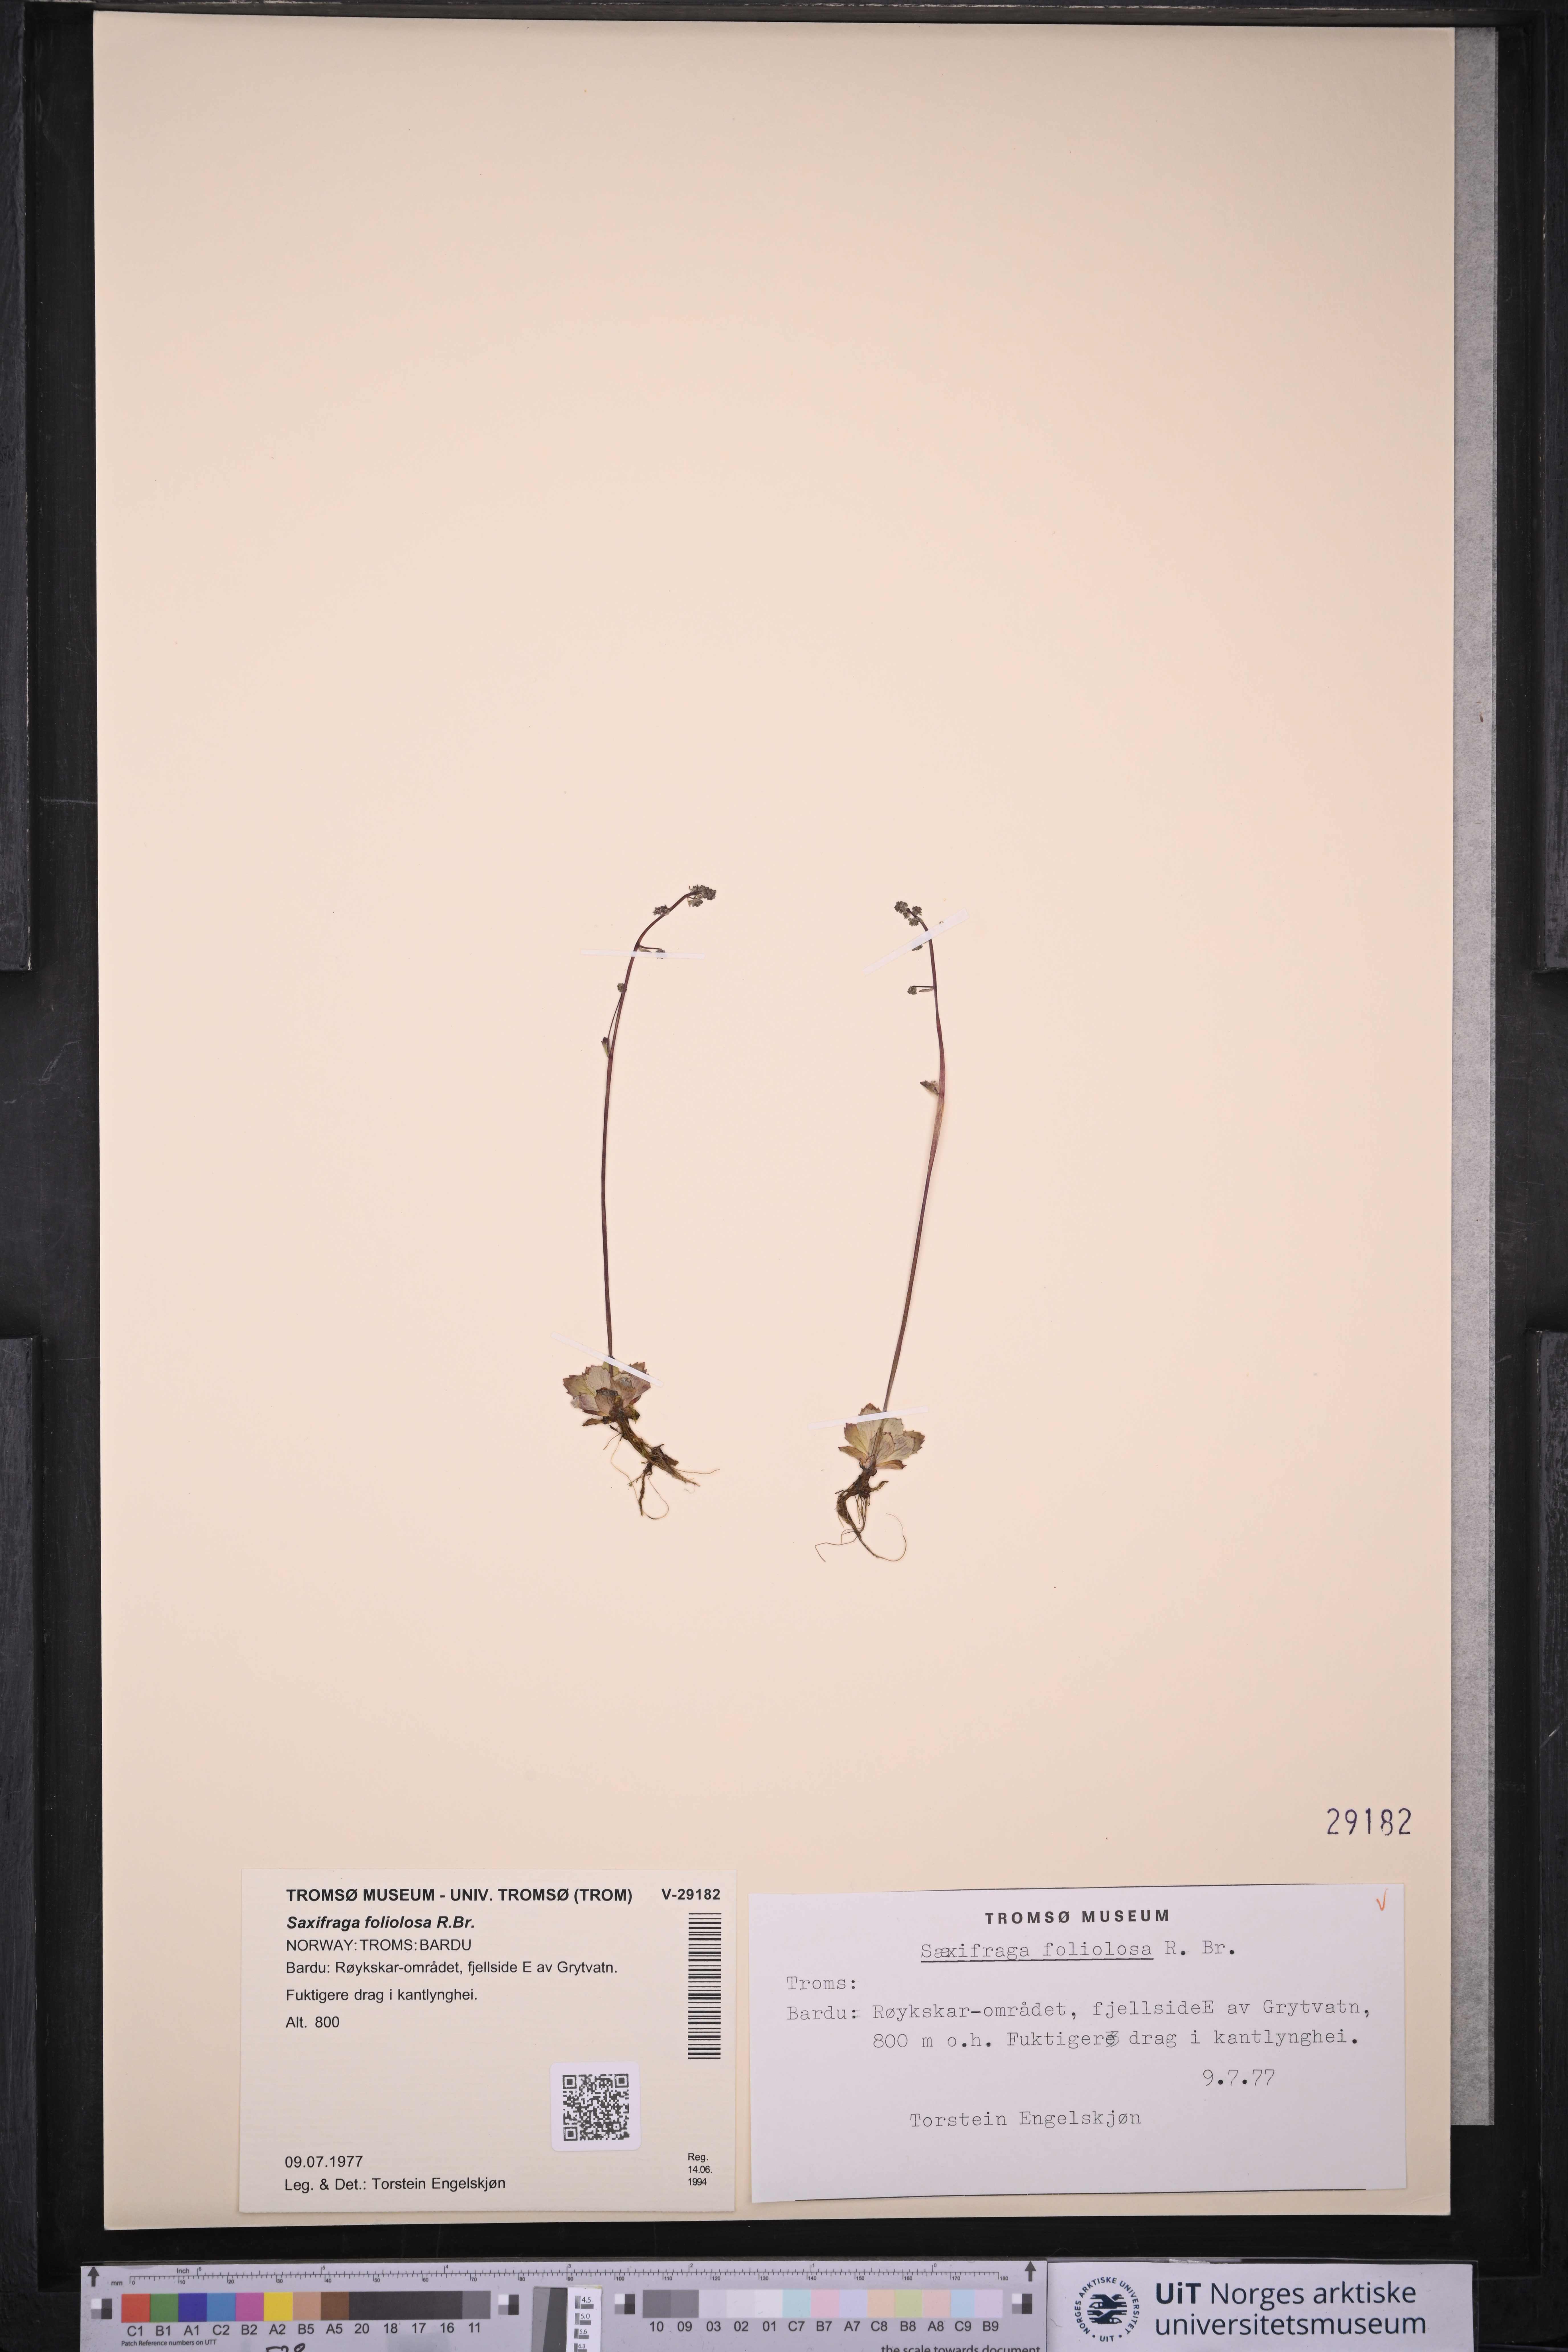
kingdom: Plantae
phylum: Tracheophyta
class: Magnoliopsida
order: Saxifragales
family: Saxifragaceae
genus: Micranthes
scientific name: Micranthes foliolosa
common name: Leafystem saxifrage
